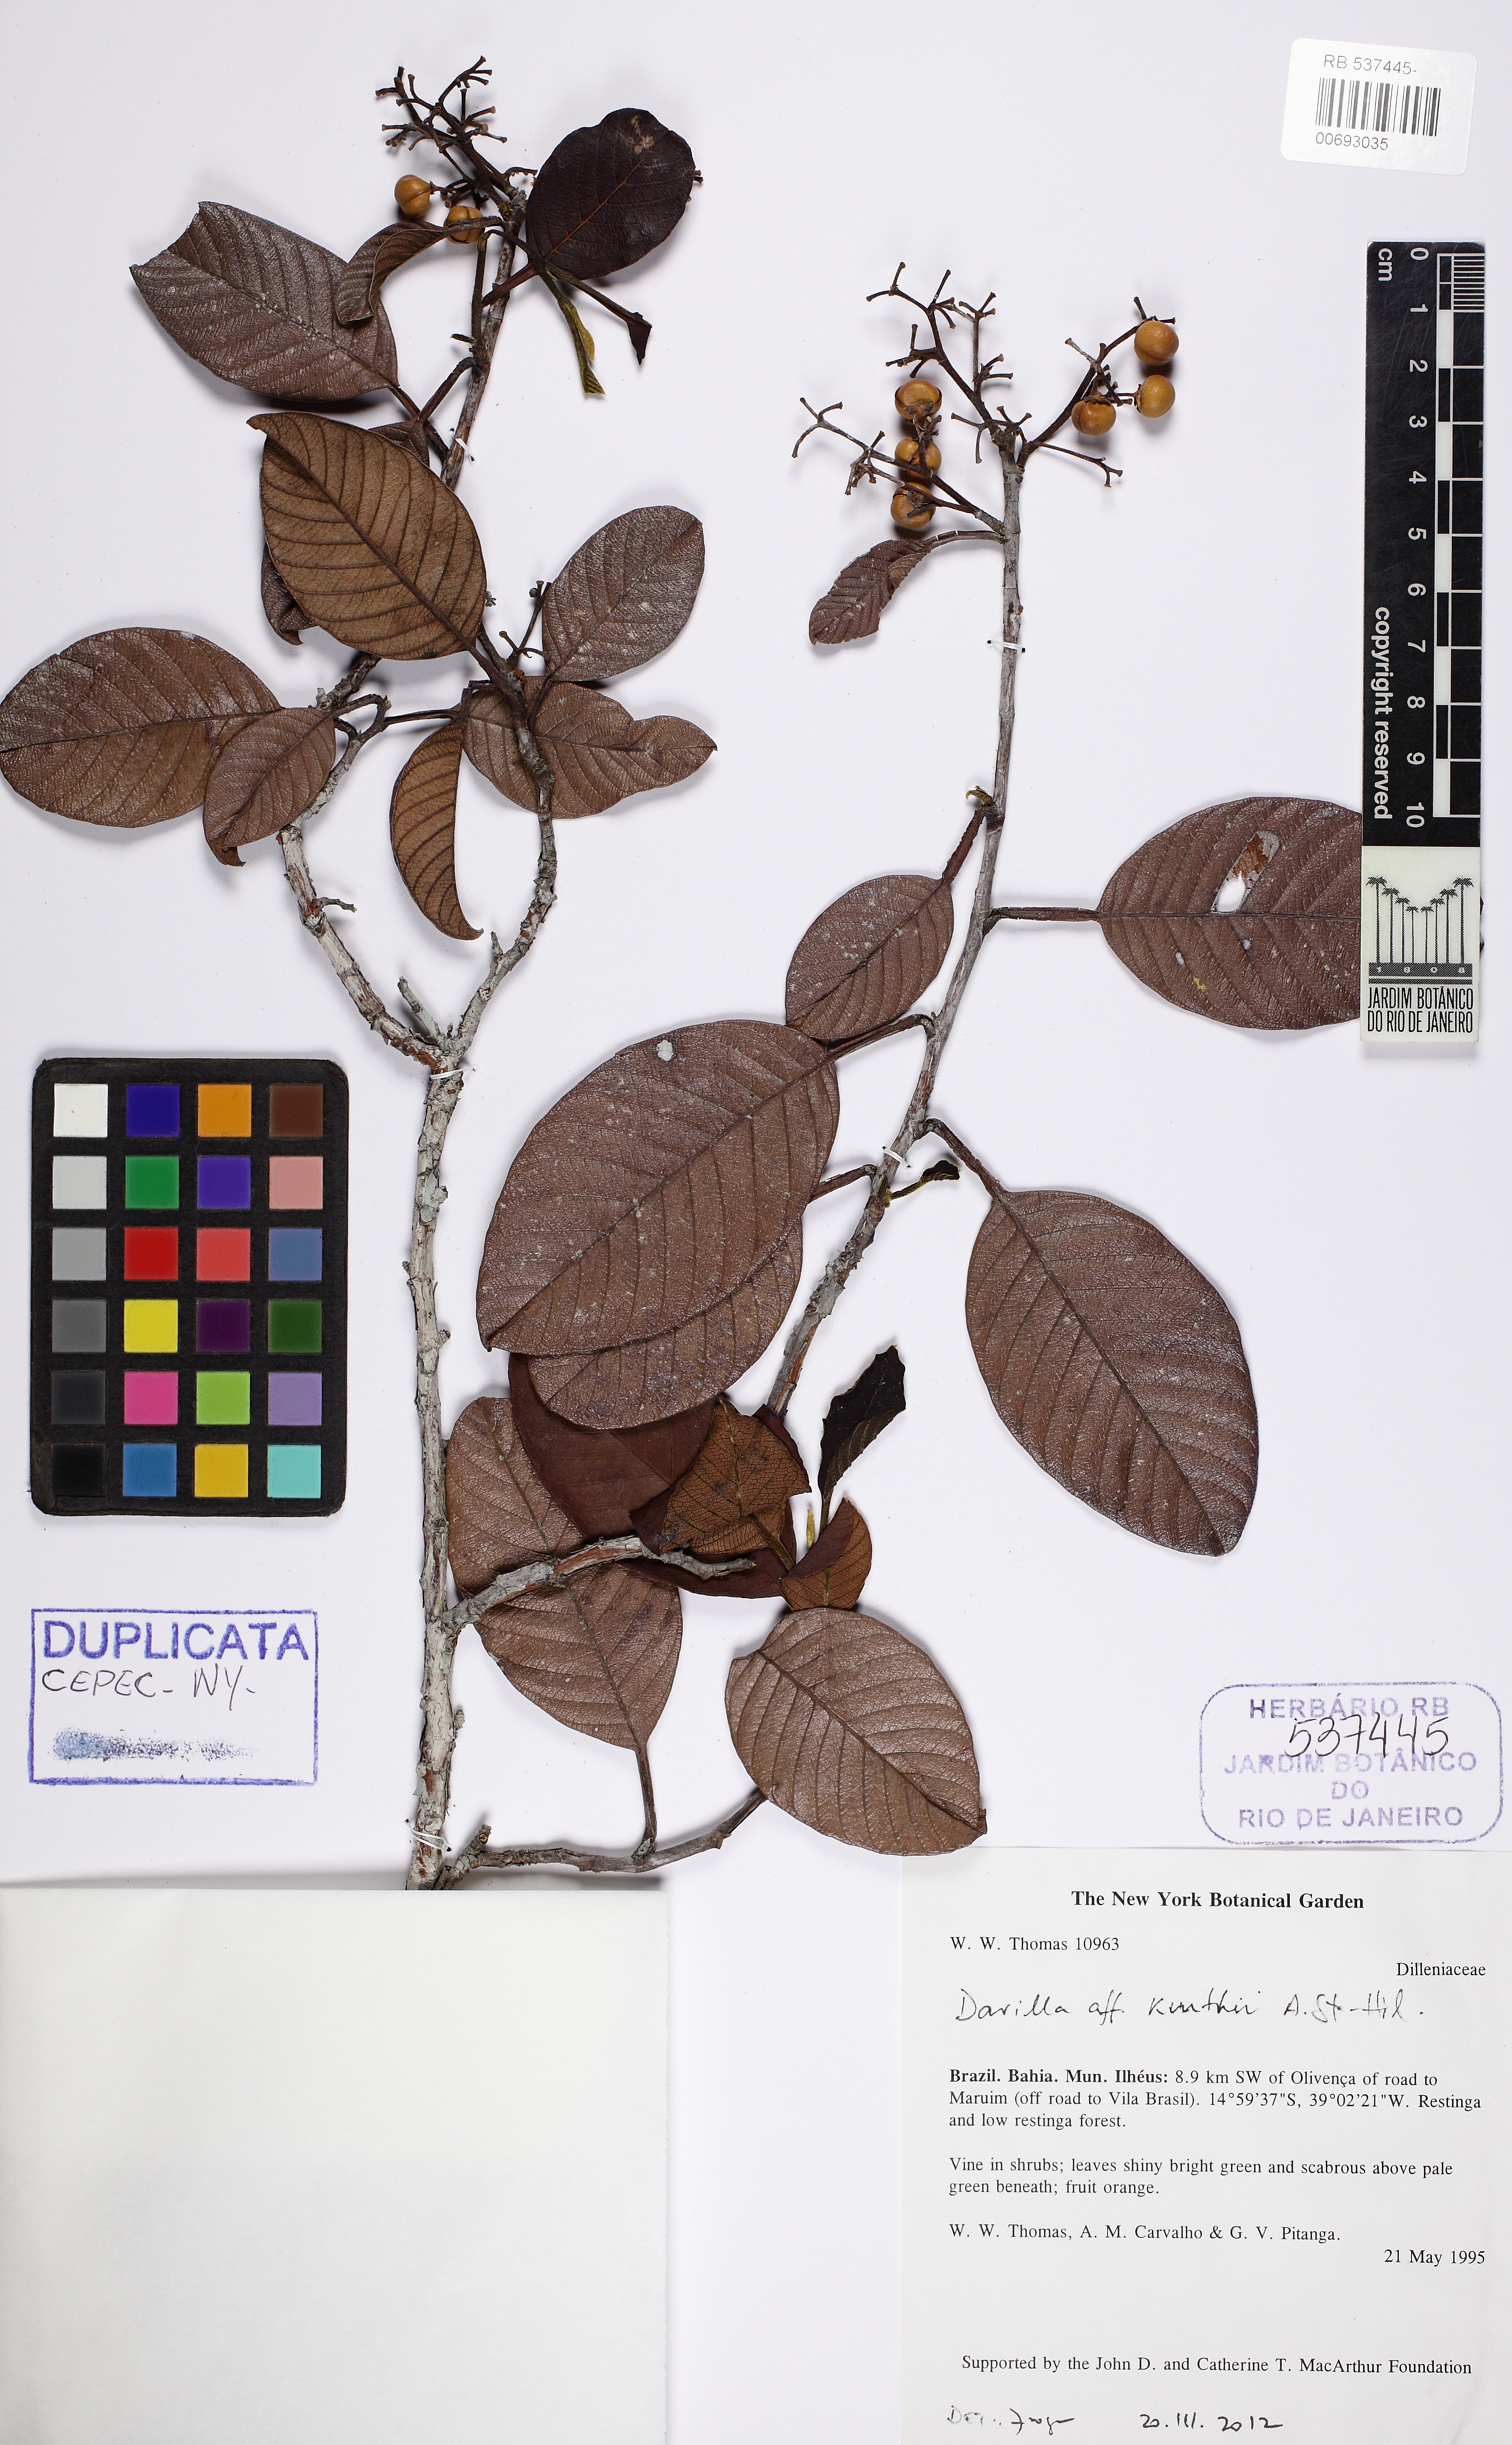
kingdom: Plantae
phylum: Tracheophyta
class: Magnoliopsida
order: Dilleniales
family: Dilleniaceae
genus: Davilla
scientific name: Davilla kunthii
